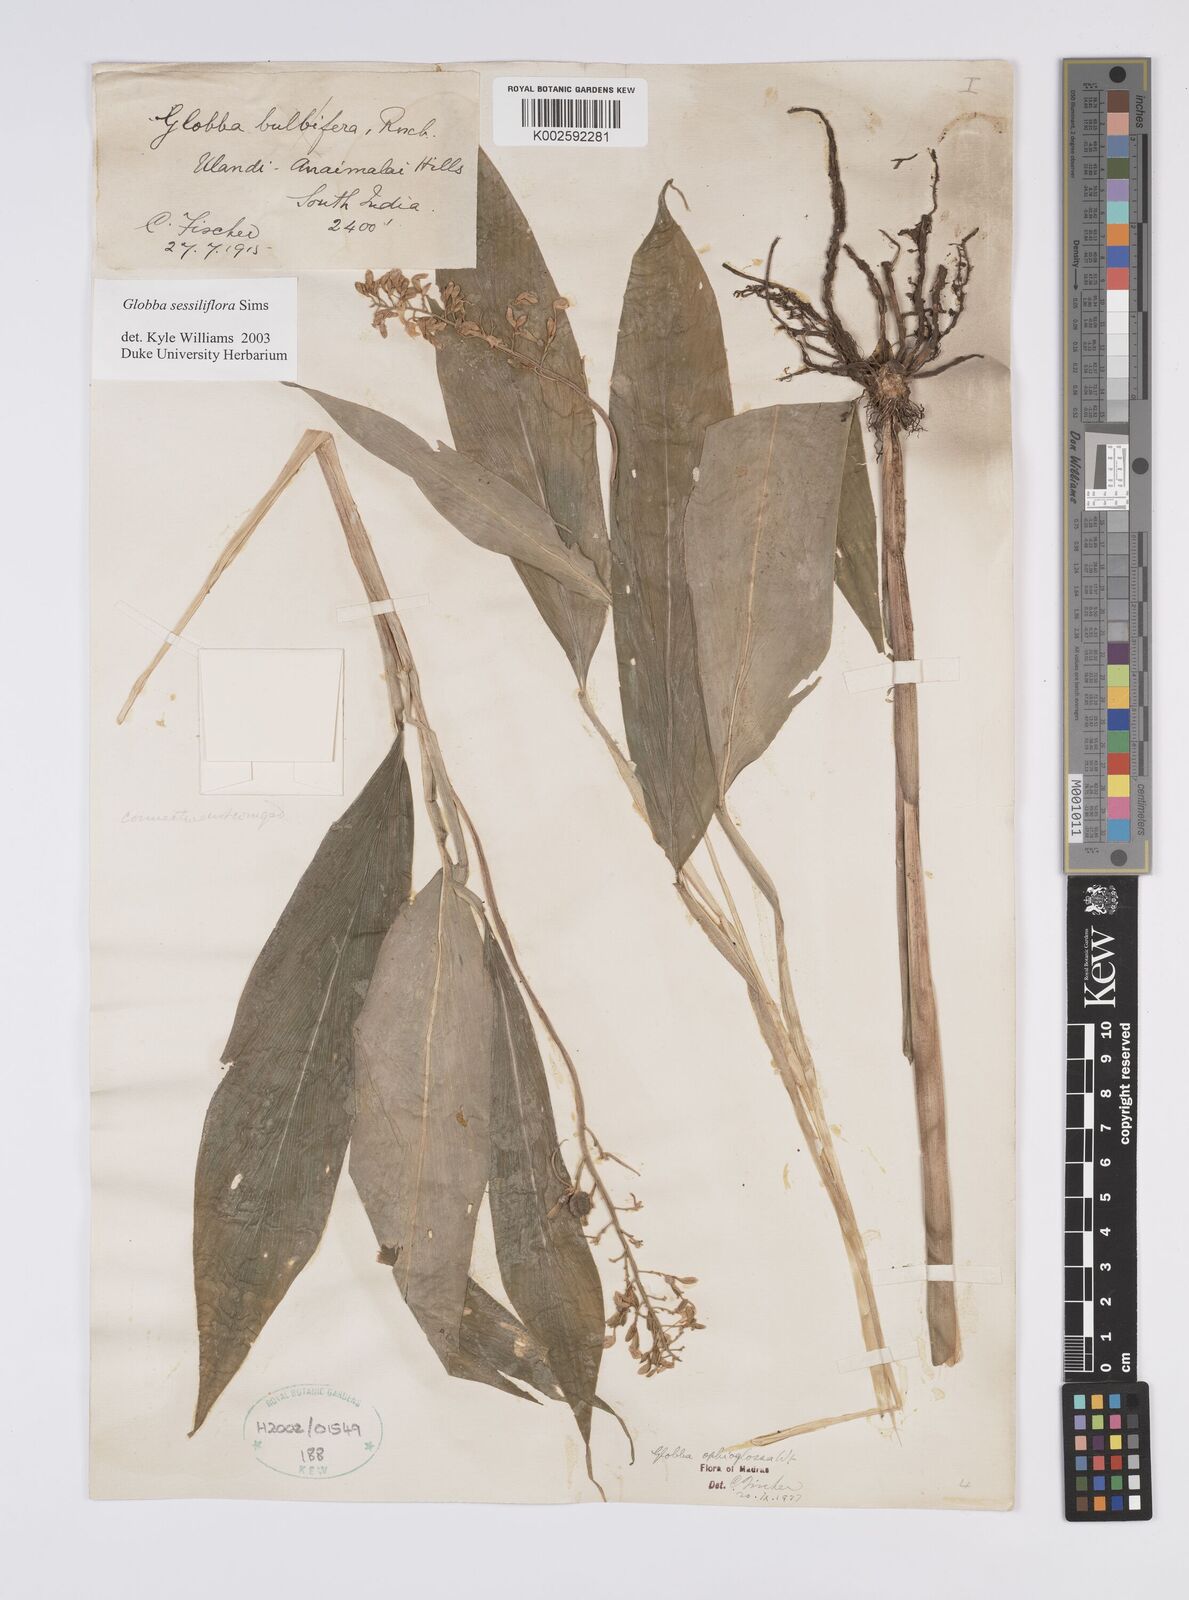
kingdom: Plantae
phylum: Tracheophyta
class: Liliopsida
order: Zingiberales
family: Zingiberaceae
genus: Globba
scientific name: Globba sessiliflora
